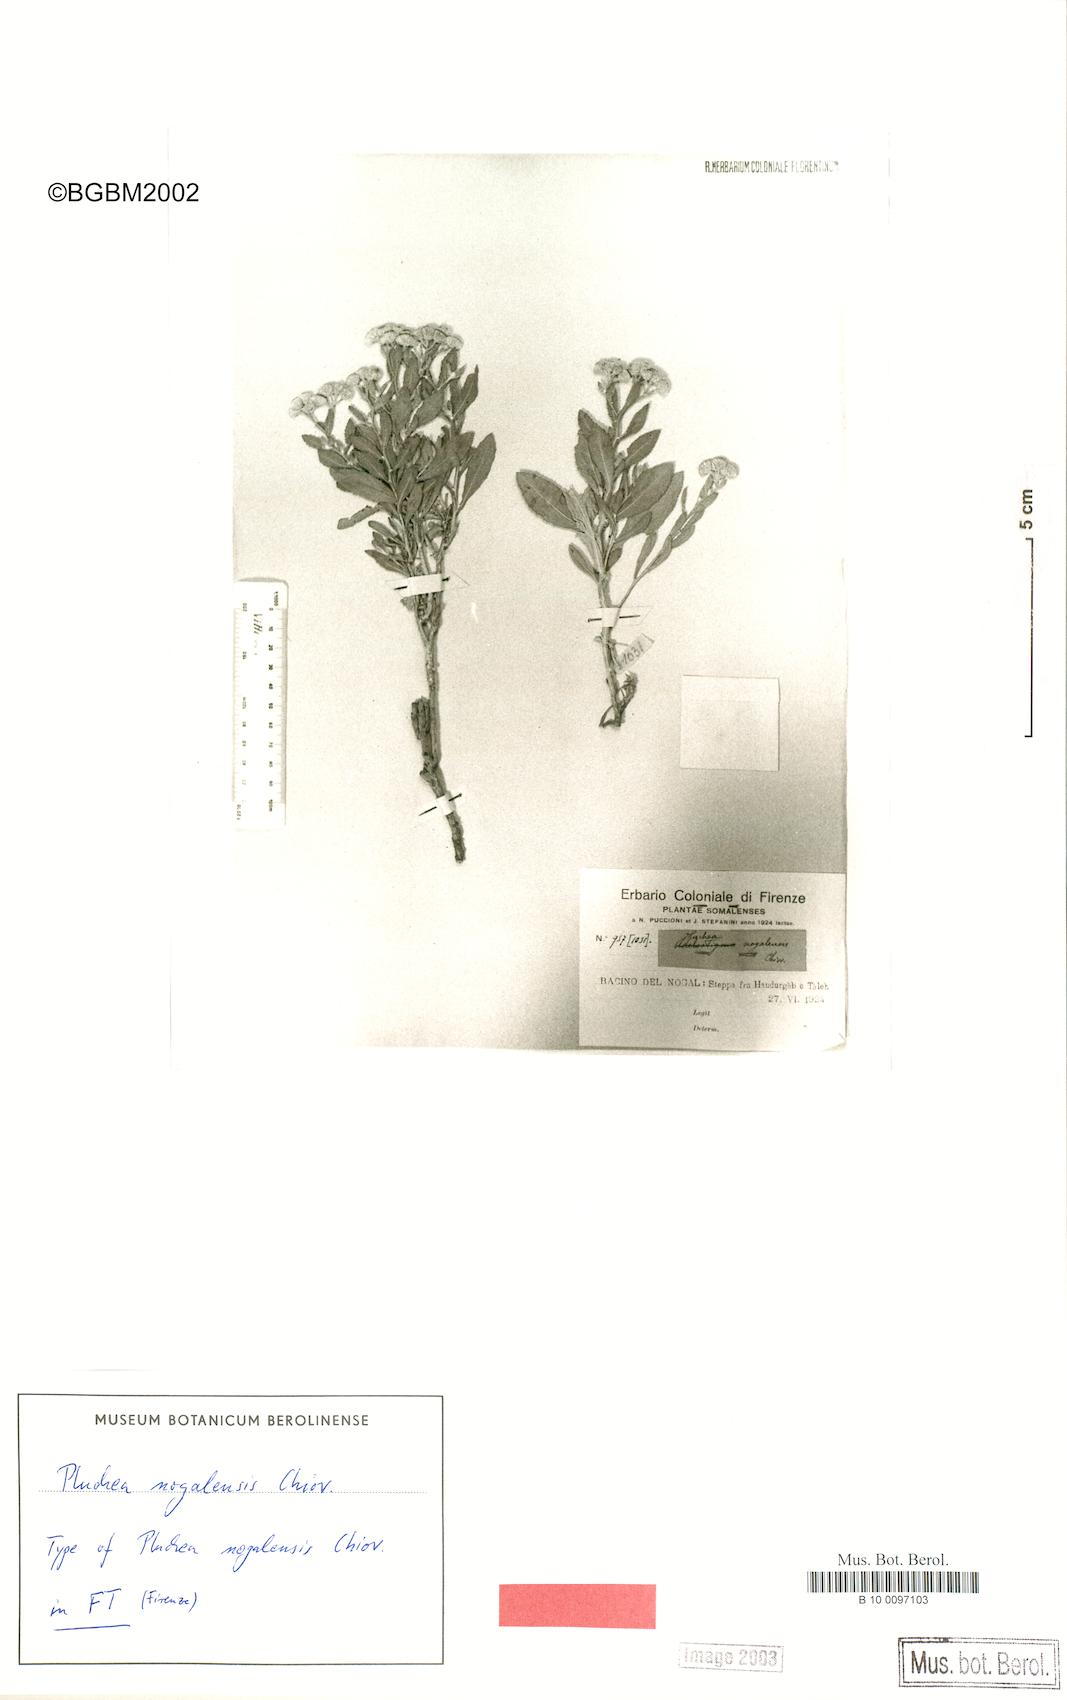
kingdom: Plantae
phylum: Tracheophyta
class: Magnoliopsida
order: Asterales
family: Asteraceae
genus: Pluchea
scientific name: Pluchea nogalensis
